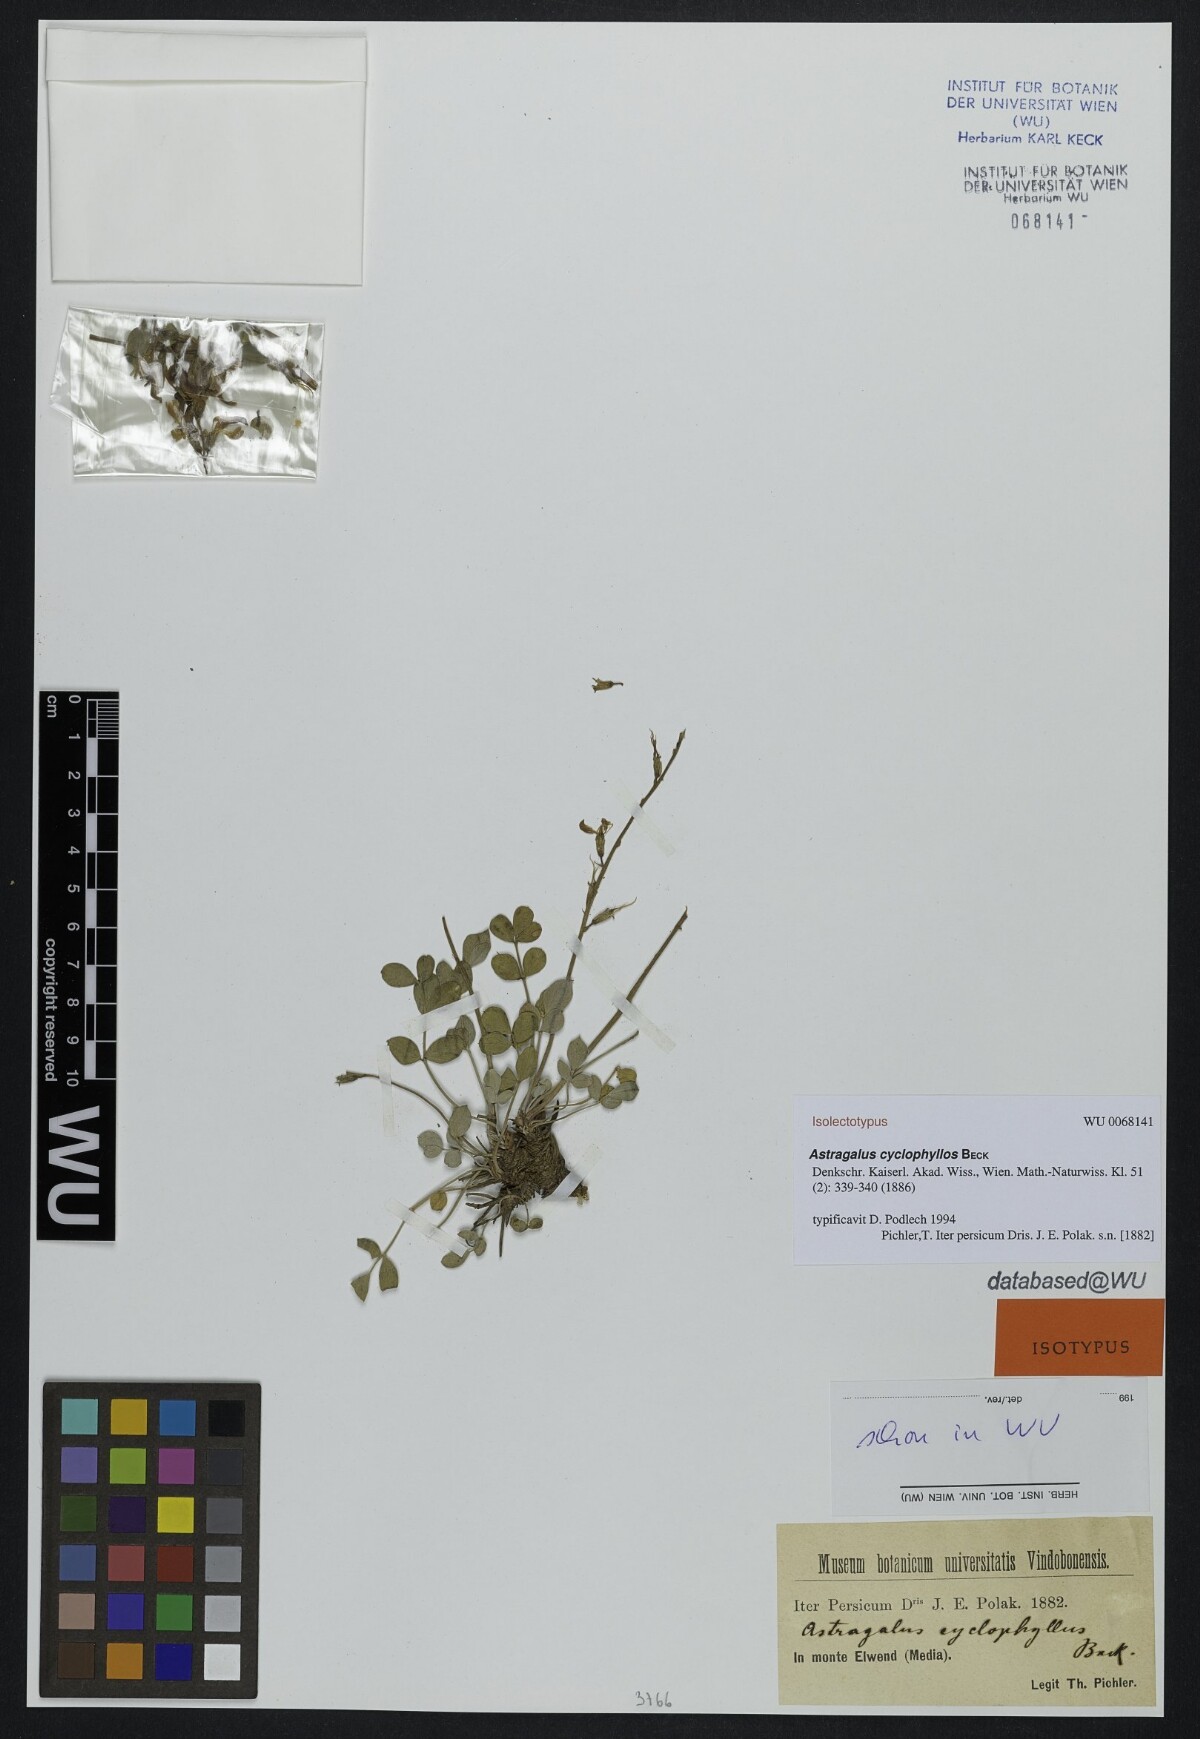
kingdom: Plantae
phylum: Tracheophyta
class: Magnoliopsida
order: Fabales
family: Fabaceae
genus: Astragalus
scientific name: Astragalus cyclophyllos
